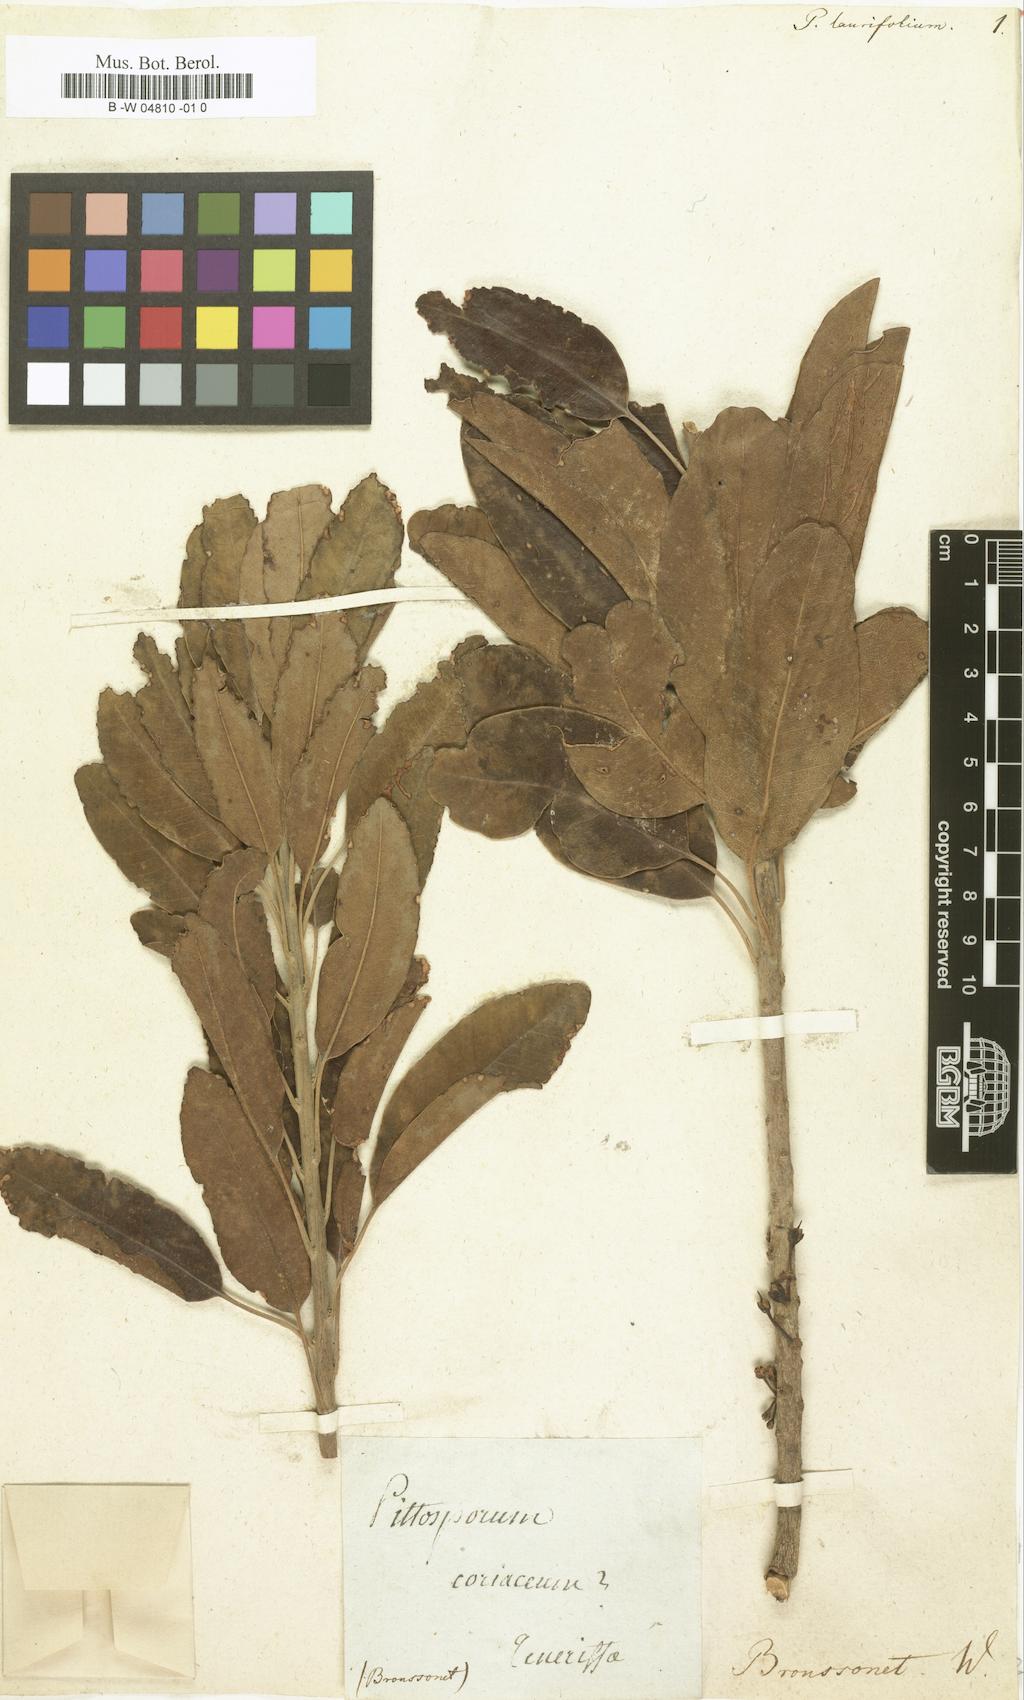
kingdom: Plantae
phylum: Tracheophyta
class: Magnoliopsida
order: Apiales
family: Pittosporaceae
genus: Pittosporum
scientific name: Pittosporum laurifolium
